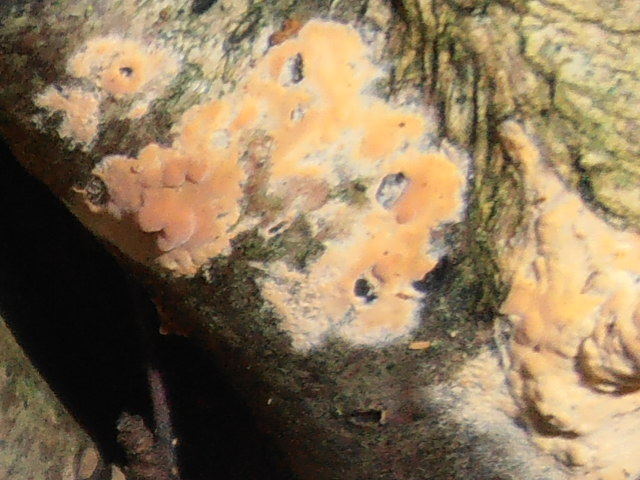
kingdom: Fungi
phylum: Basidiomycota
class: Agaricomycetes
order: Russulales
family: Peniophoraceae
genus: Peniophora
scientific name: Peniophora incarnata
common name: laksefarvet voksskind
